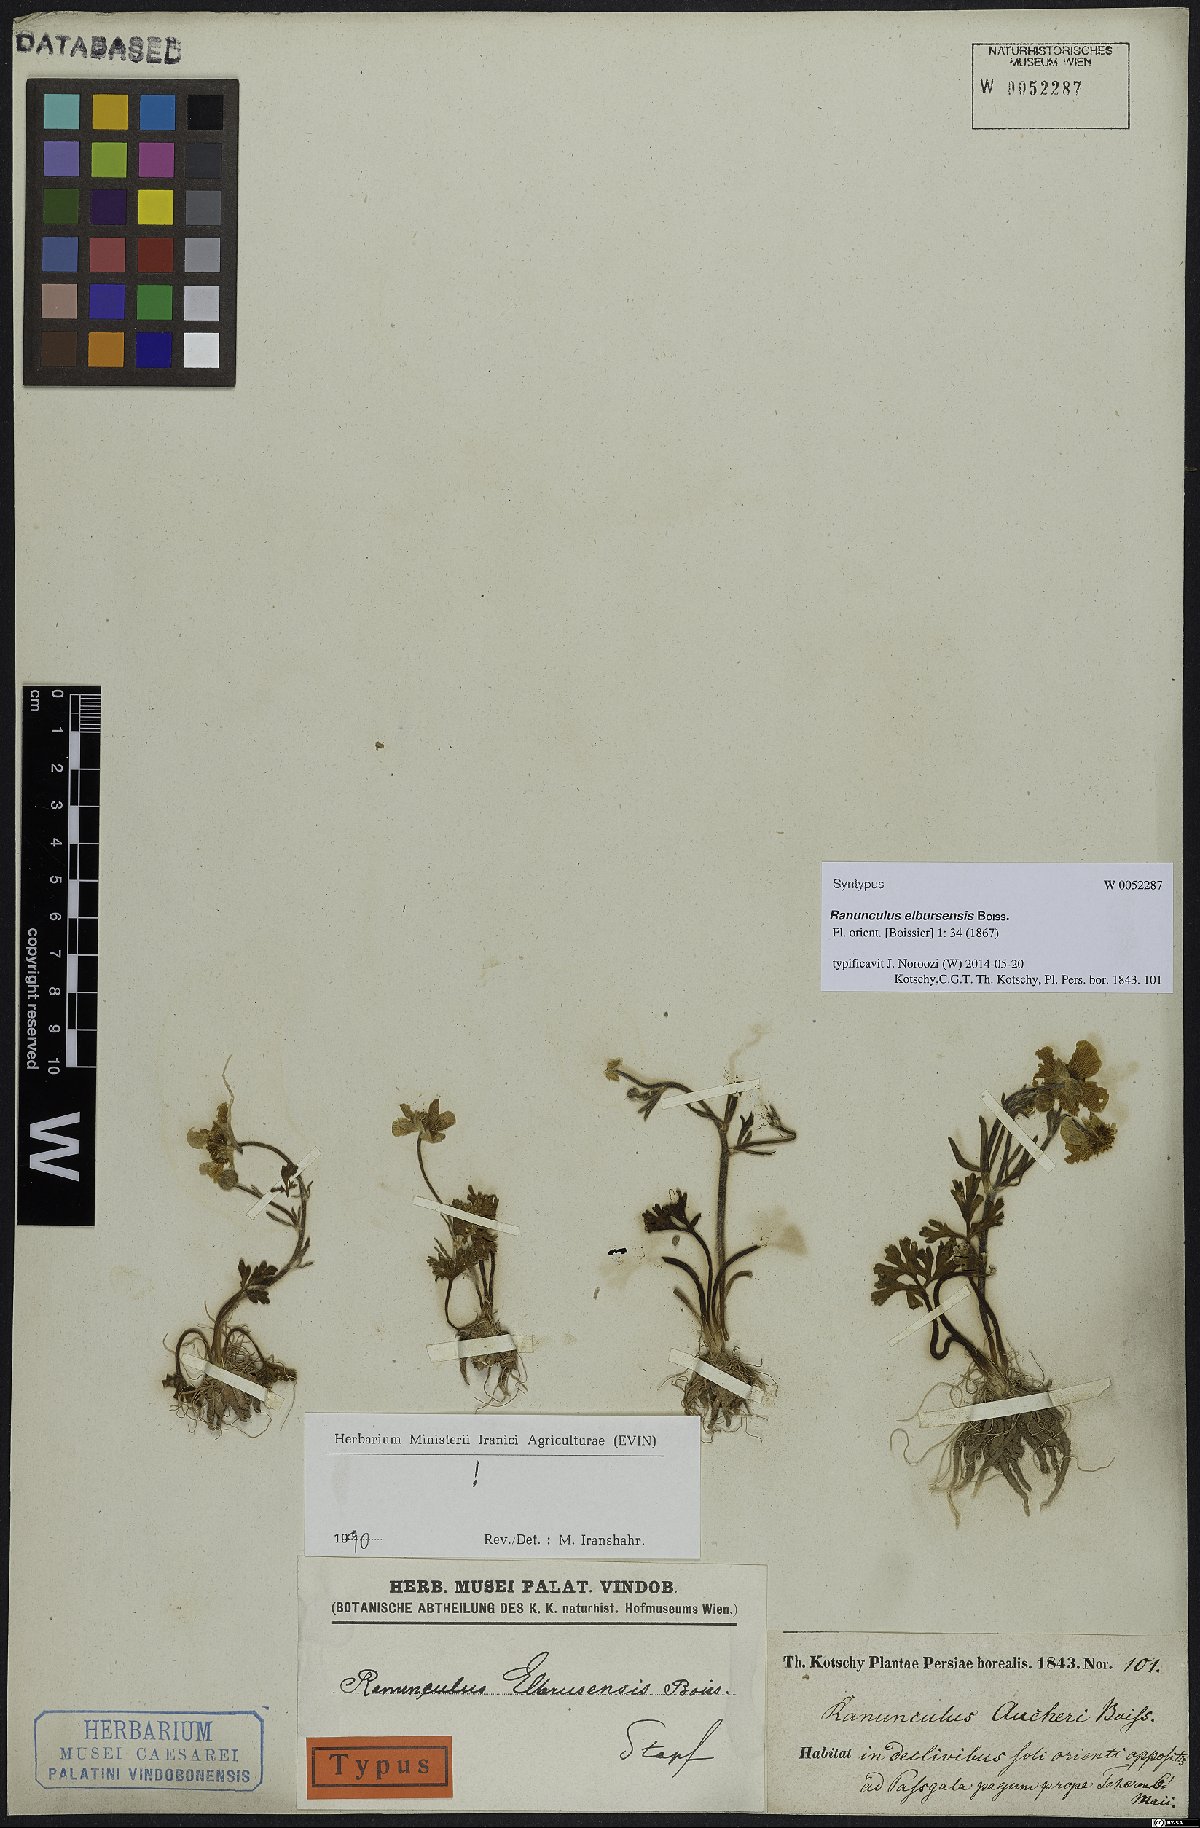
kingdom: Plantae
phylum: Tracheophyta
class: Magnoliopsida
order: Ranunculales
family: Ranunculaceae
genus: Ranunculus
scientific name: Ranunculus elbursensis
